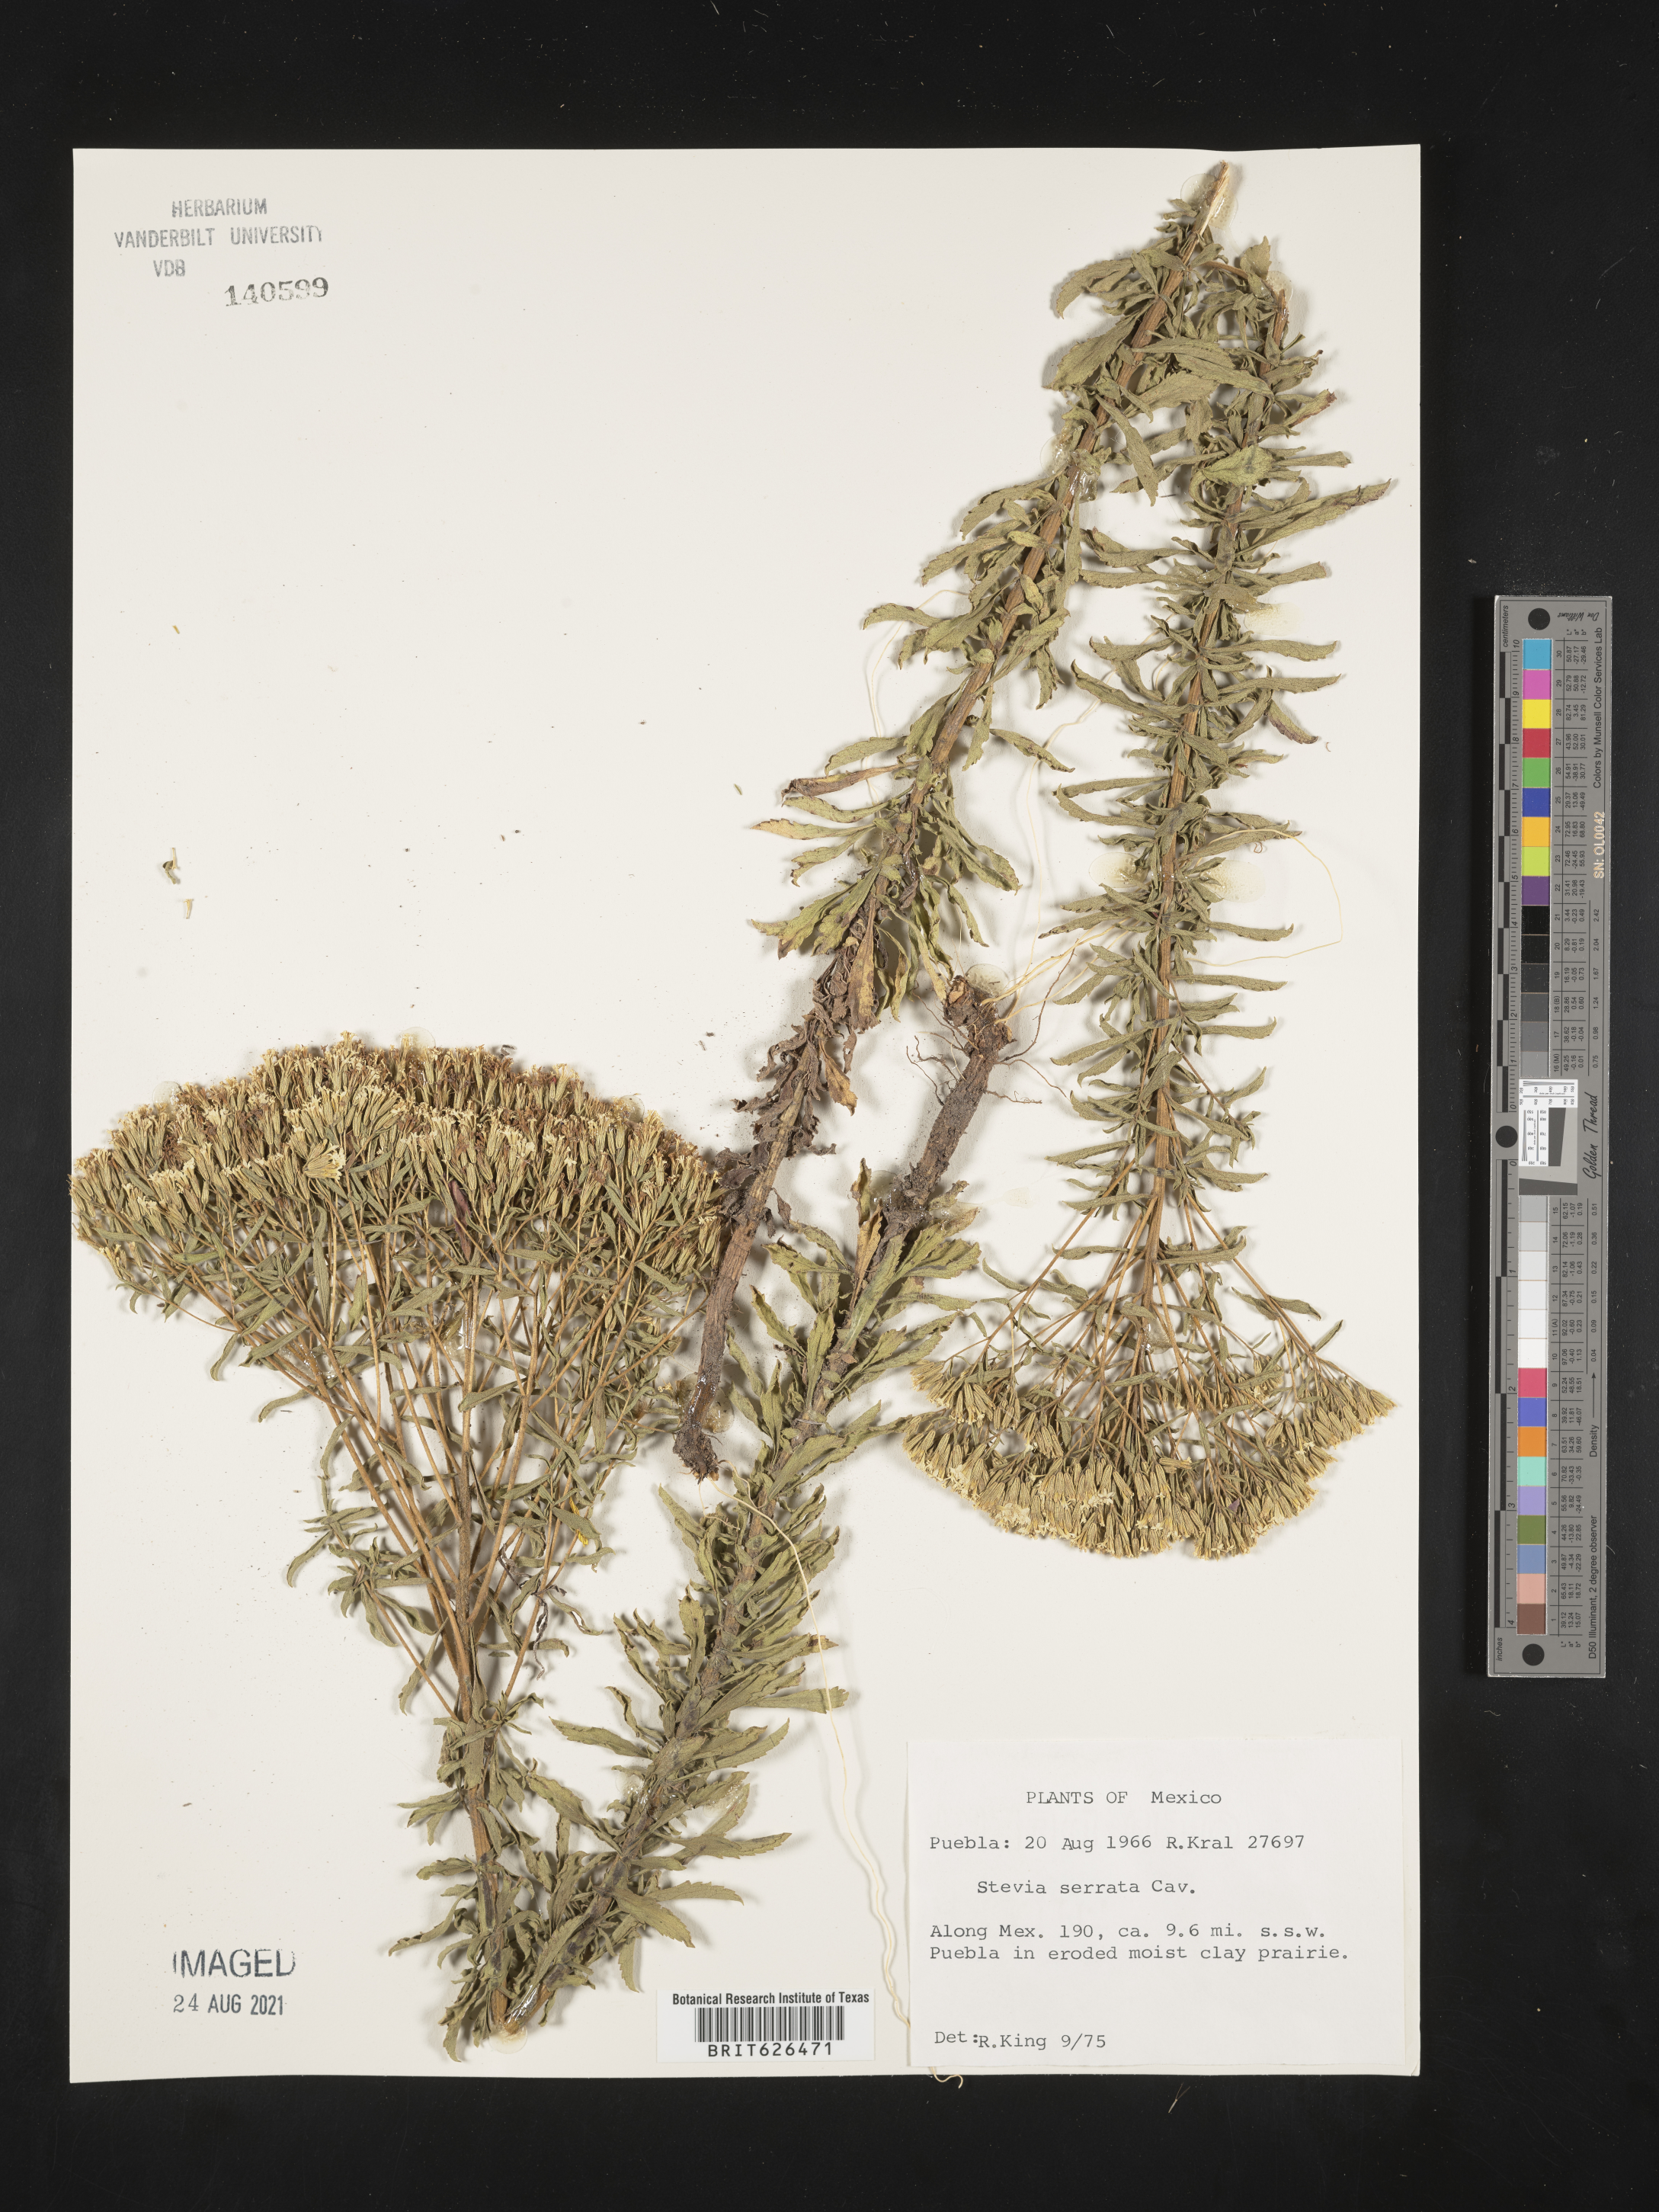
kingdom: Plantae
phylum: Tracheophyta
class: Magnoliopsida
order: Asterales
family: Asteraceae
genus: Stevia
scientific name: Stevia
